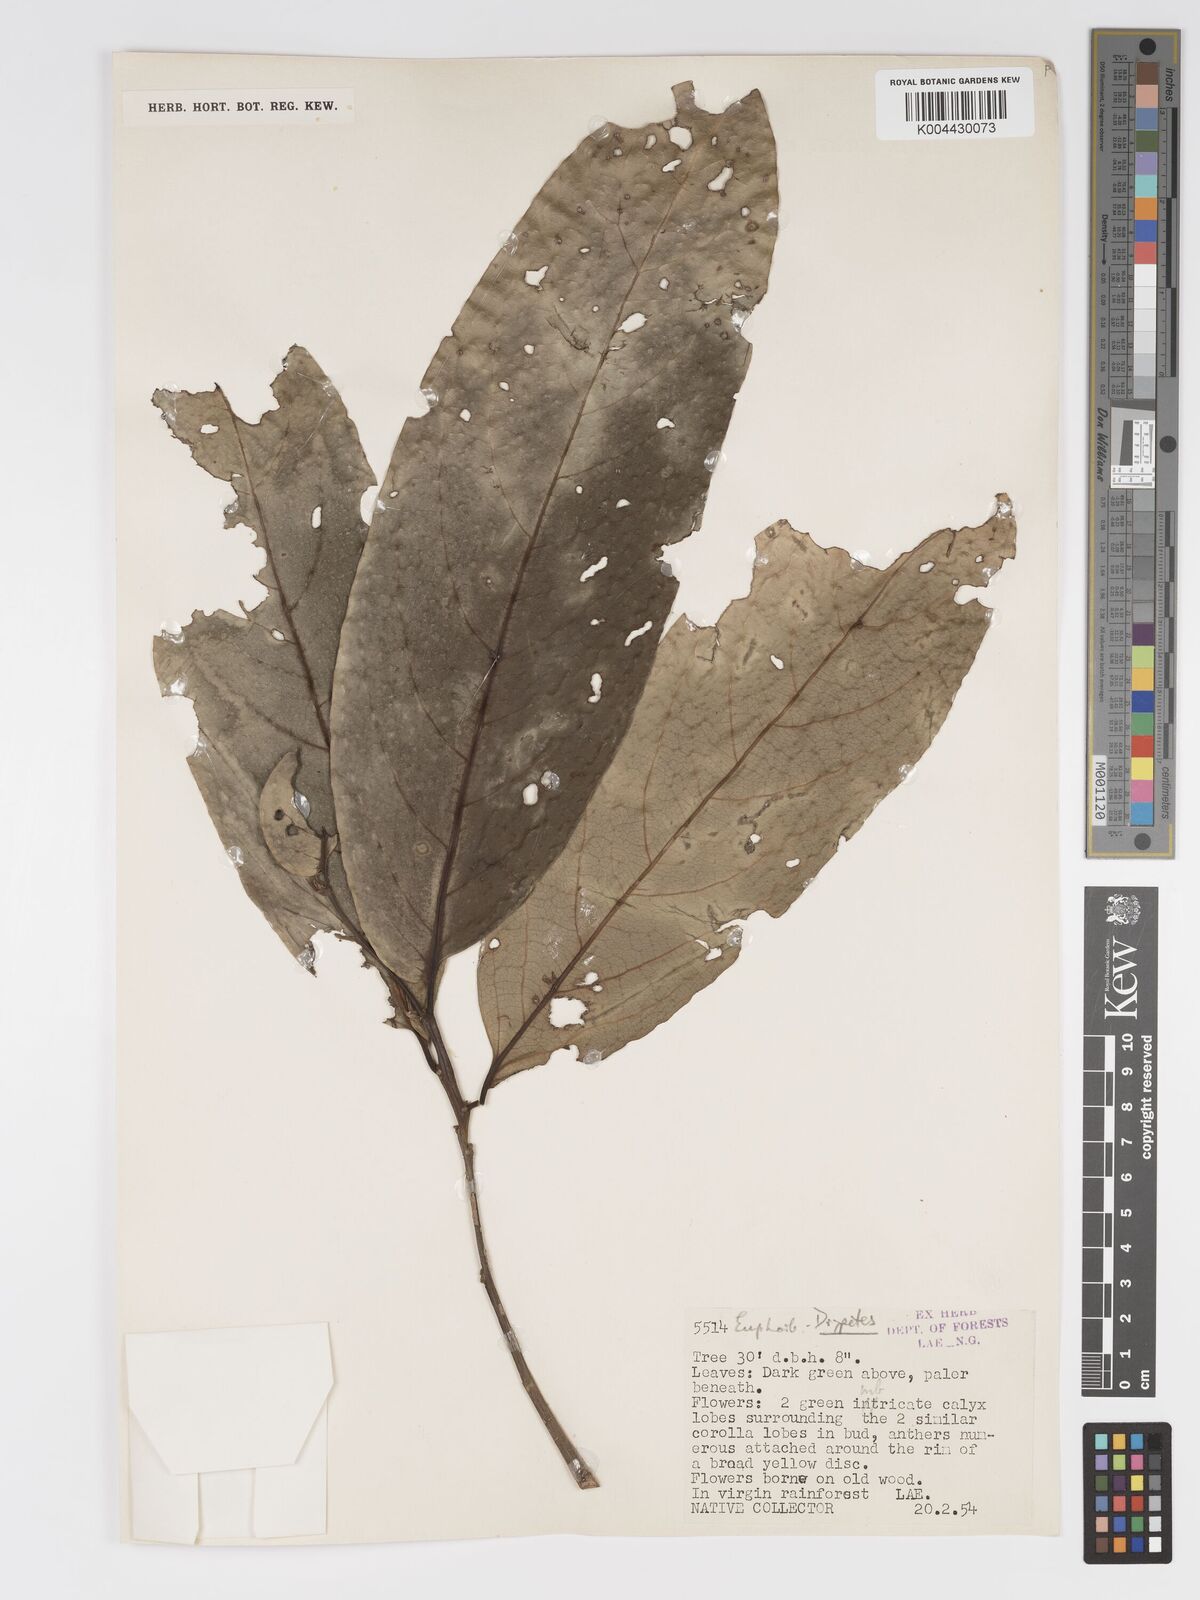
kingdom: Plantae
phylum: Tracheophyta
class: Magnoliopsida
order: Malpighiales
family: Putranjivaceae
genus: Drypetes
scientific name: Drypetes longifolia
